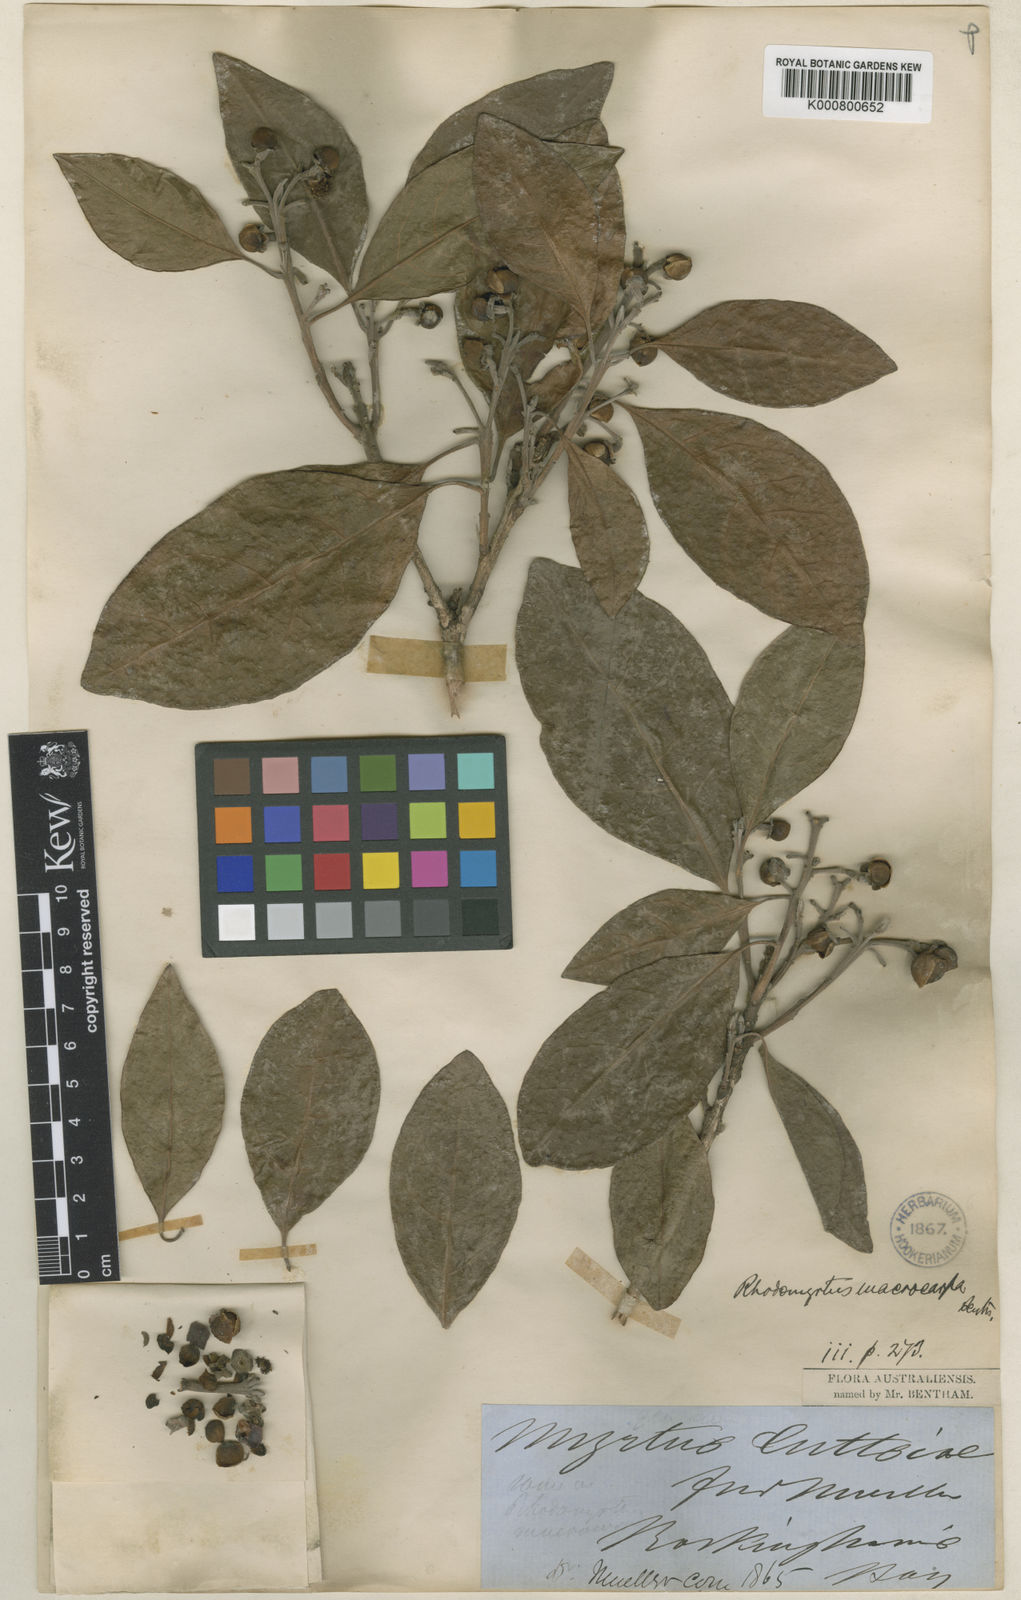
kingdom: Plantae
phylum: Tracheophyta
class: Magnoliopsida
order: Myrtales
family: Myrtaceae
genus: Rhodomyrtus
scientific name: Rhodomyrtus macrocarpa
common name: Finger-cherry
